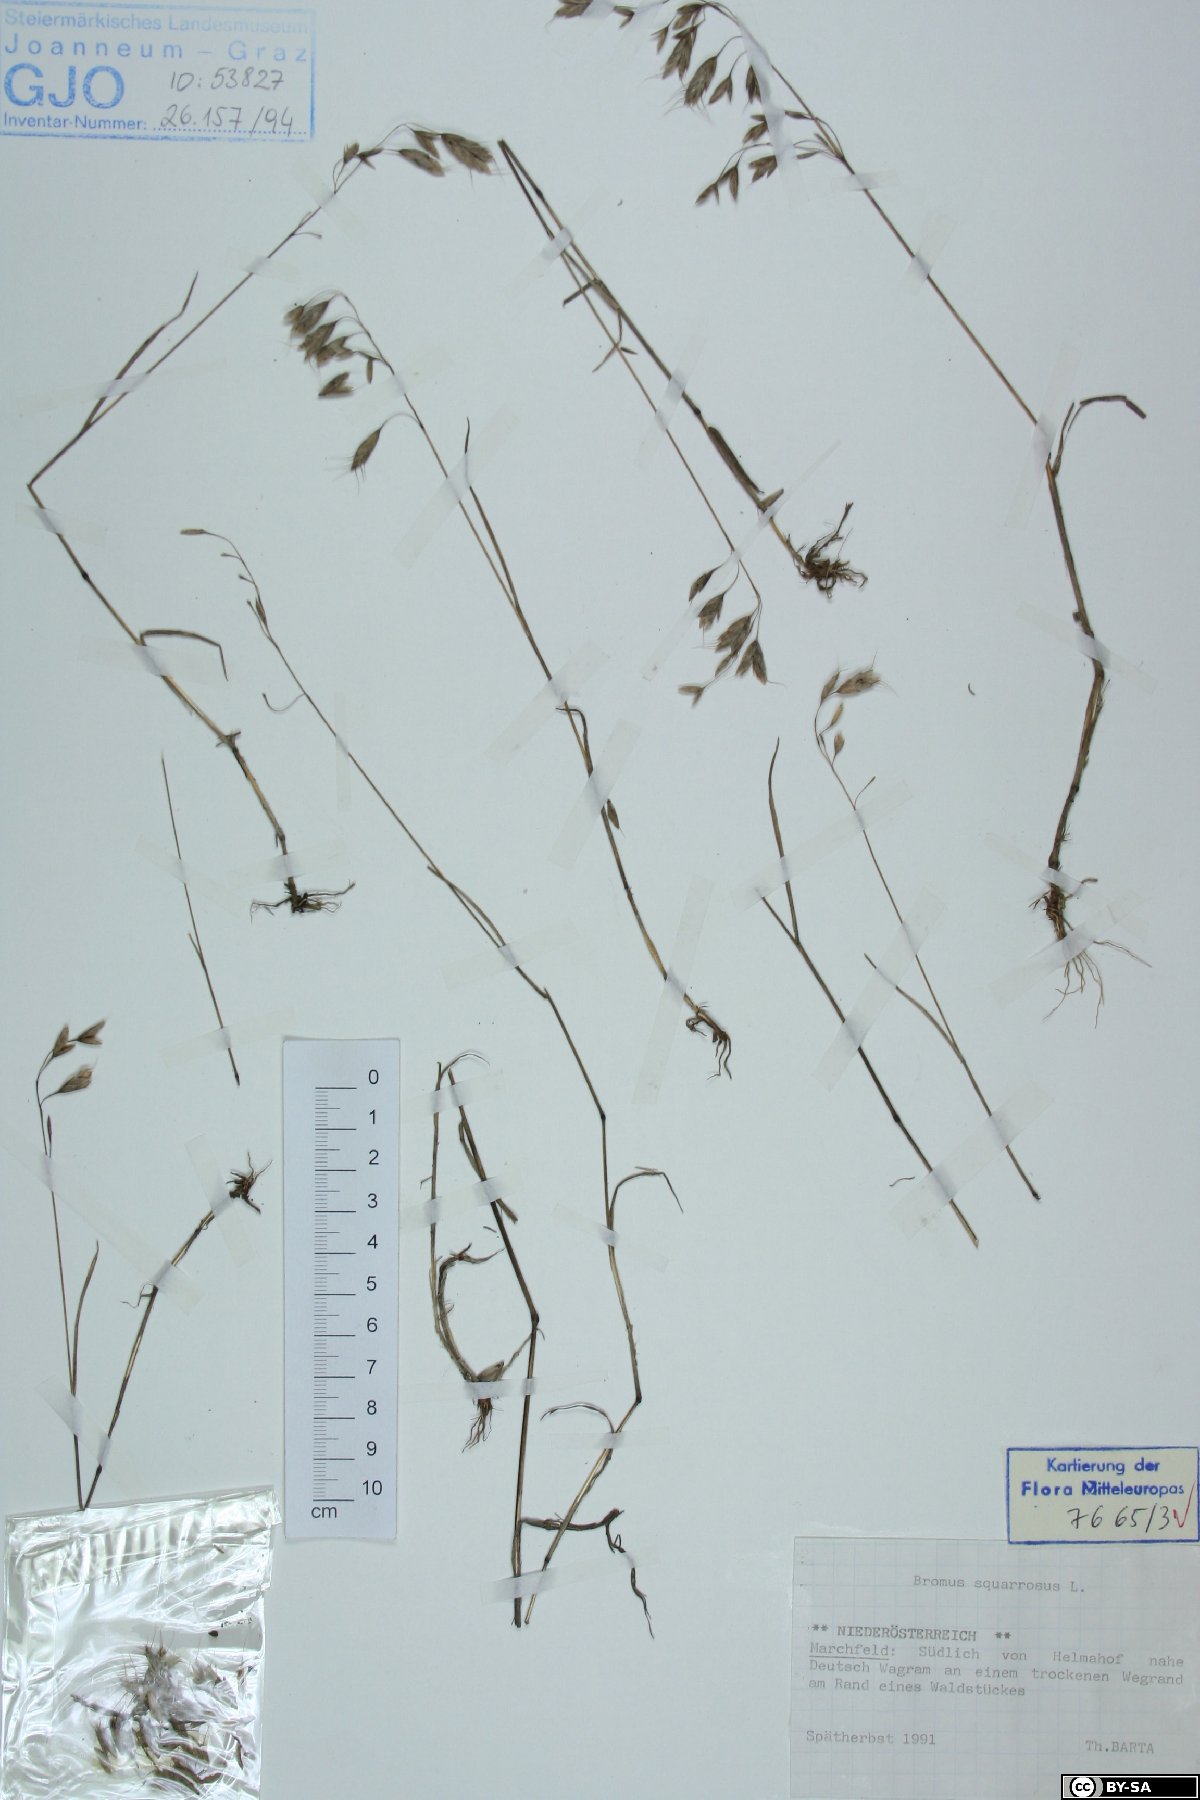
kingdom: Plantae
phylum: Tracheophyta
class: Liliopsida
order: Poales
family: Poaceae
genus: Bromus
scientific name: Bromus squarrosus
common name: Corn brome
